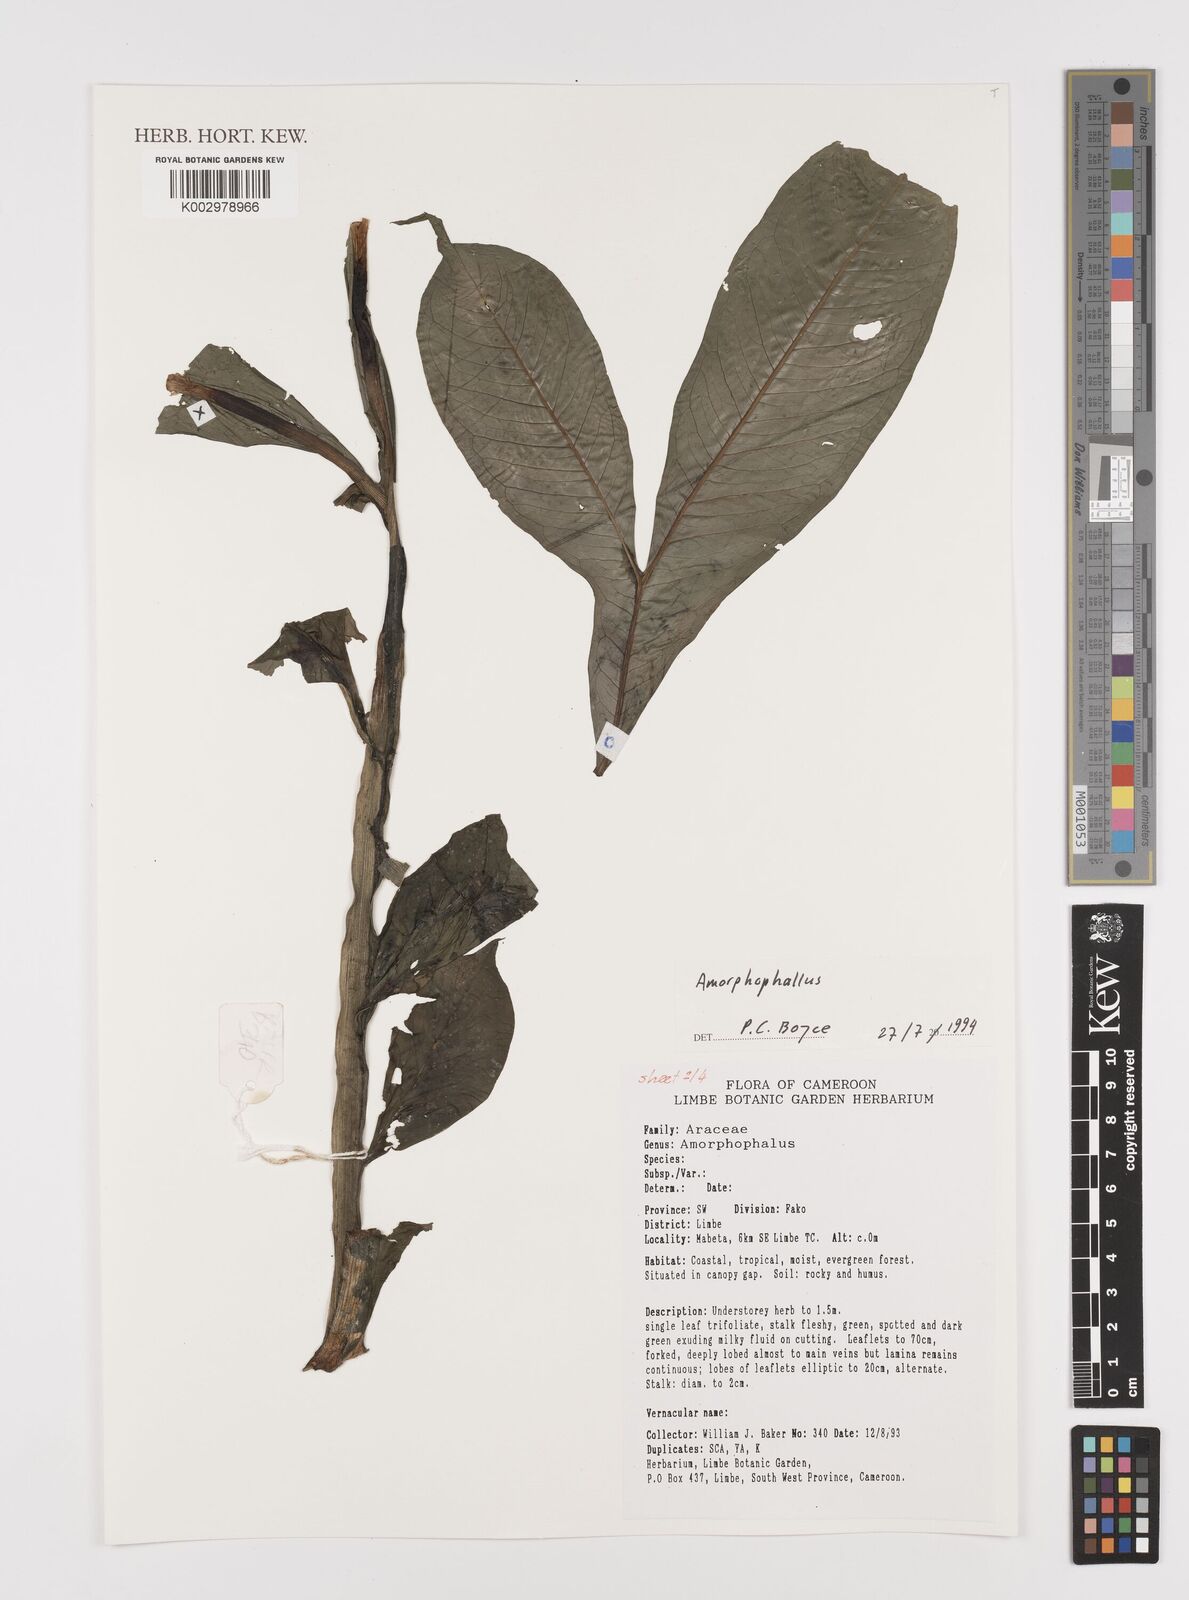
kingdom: Plantae
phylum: Tracheophyta
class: Liliopsida
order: Alismatales
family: Araceae
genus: Amorphophallus
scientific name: Amorphophallus
